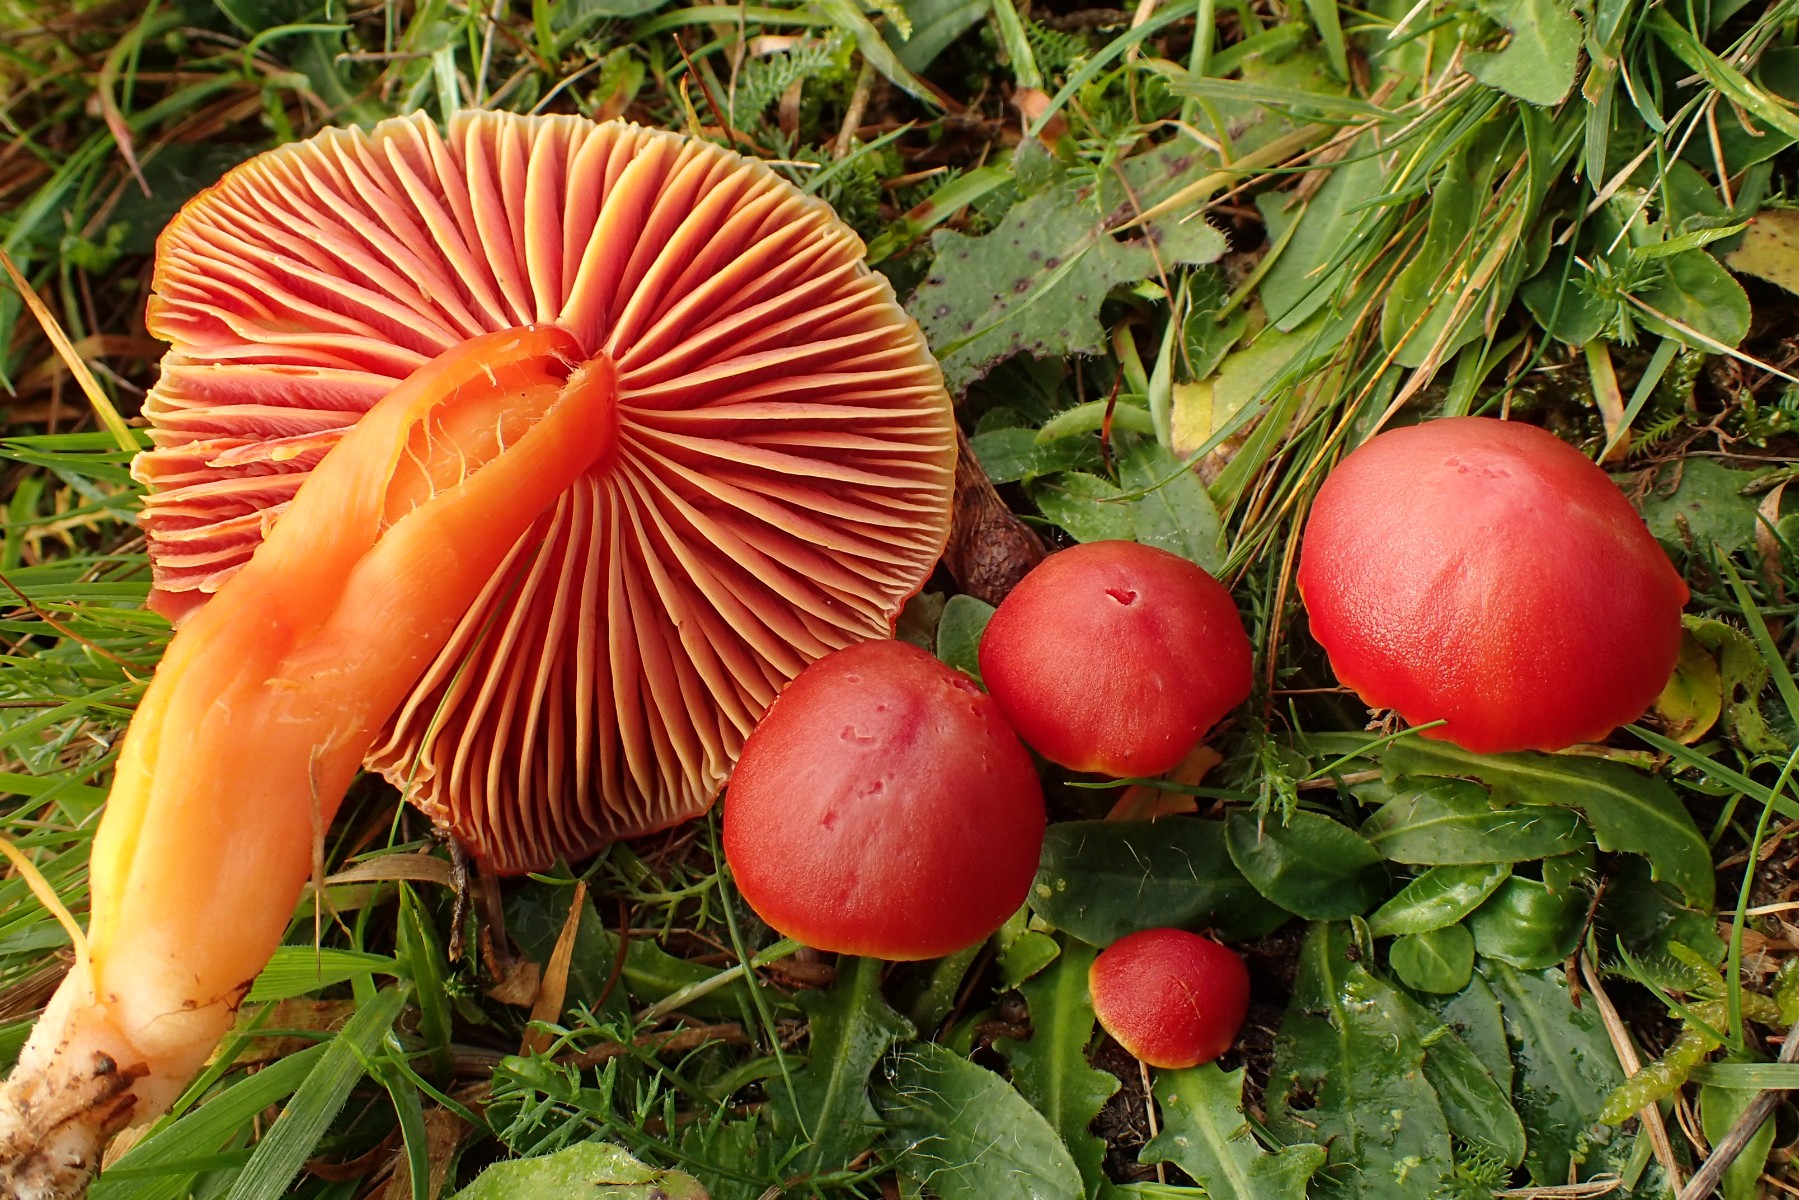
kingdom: Fungi
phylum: Basidiomycota
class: Agaricomycetes
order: Agaricales
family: Hygrophoraceae
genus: Hygrocybe
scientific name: Hygrocybe coccinea
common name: cinnober-vokshat
